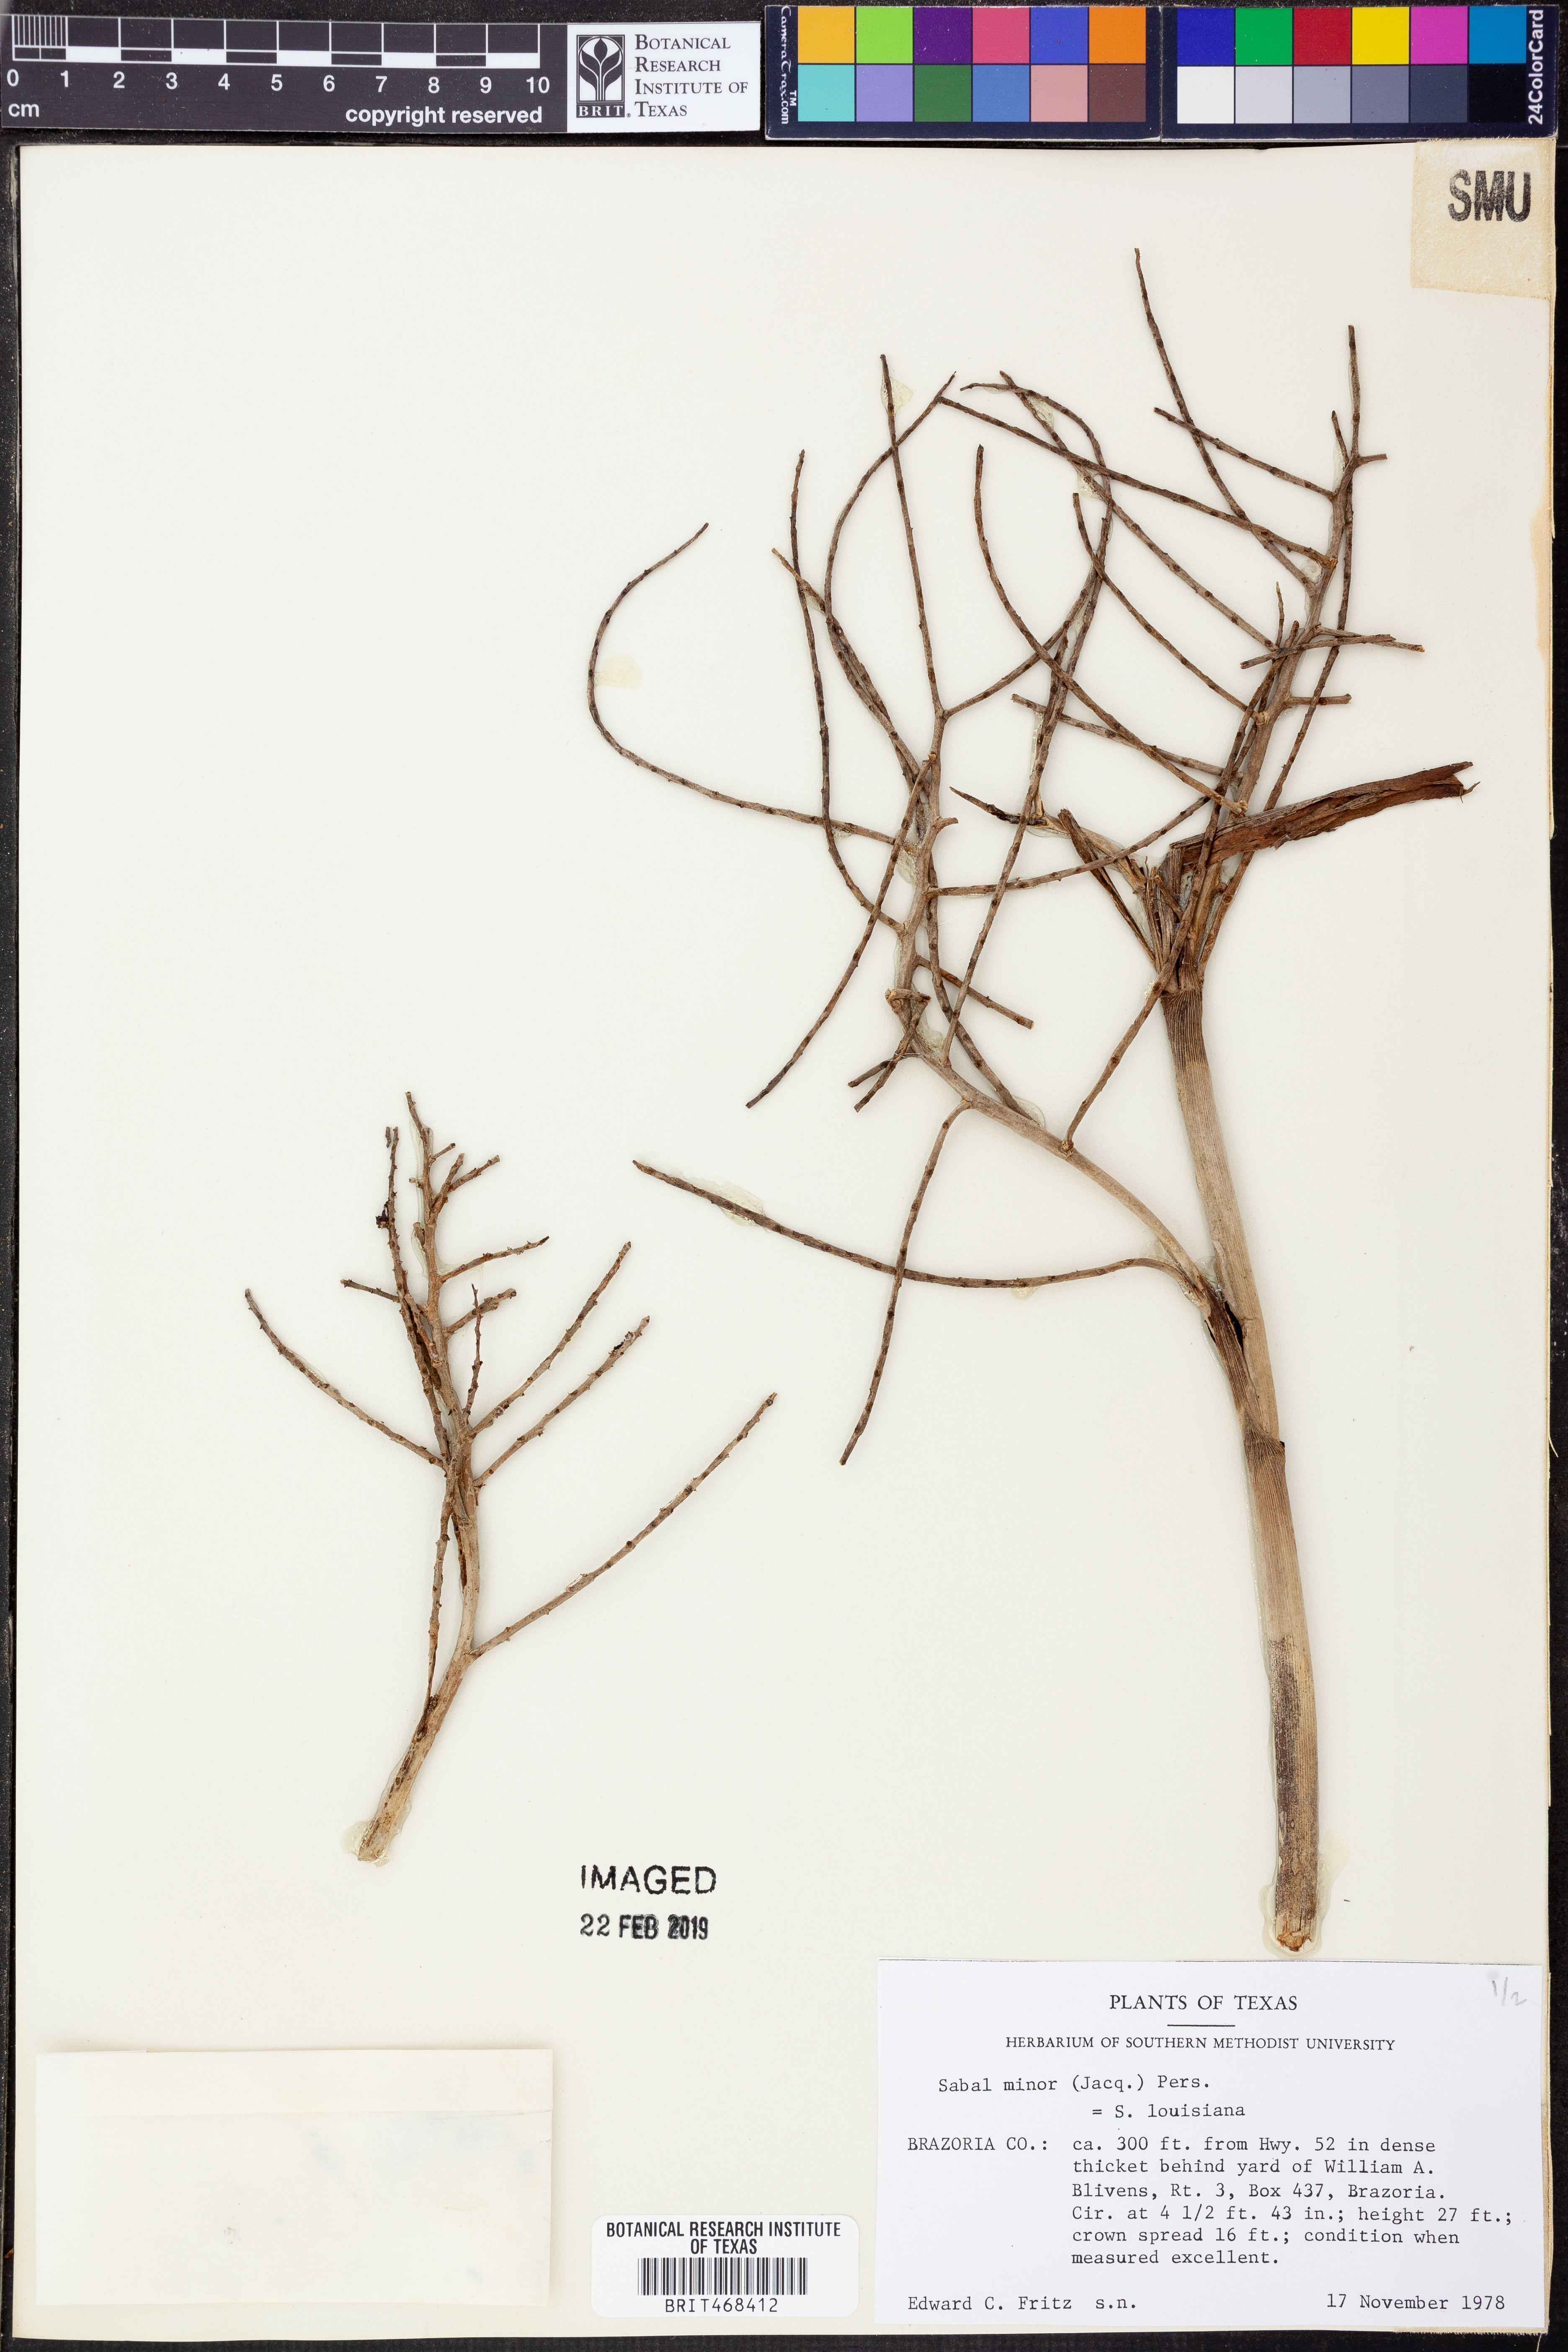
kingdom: Plantae
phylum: Tracheophyta
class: Liliopsida
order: Arecales
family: Arecaceae
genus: Sabal
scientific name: Sabal brazoriensis
